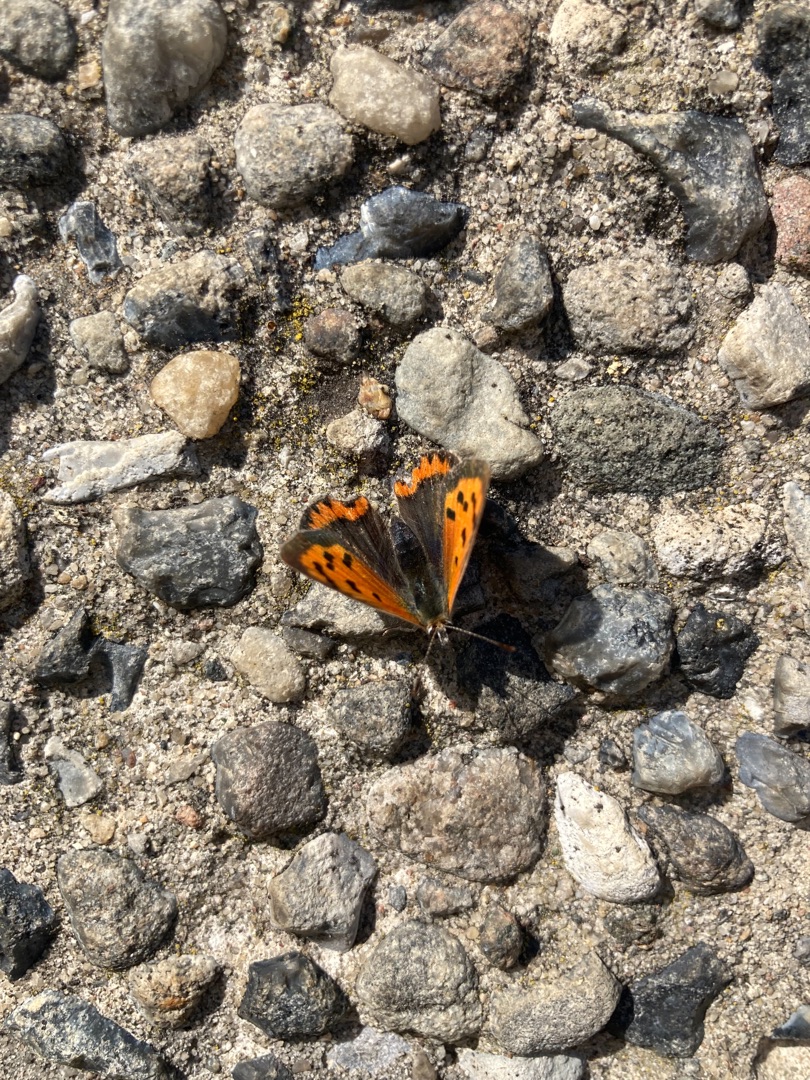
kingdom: Animalia
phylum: Arthropoda
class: Insecta
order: Lepidoptera
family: Lycaenidae
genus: Lycaena
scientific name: Lycaena phlaeas
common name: Lille ildfugl
